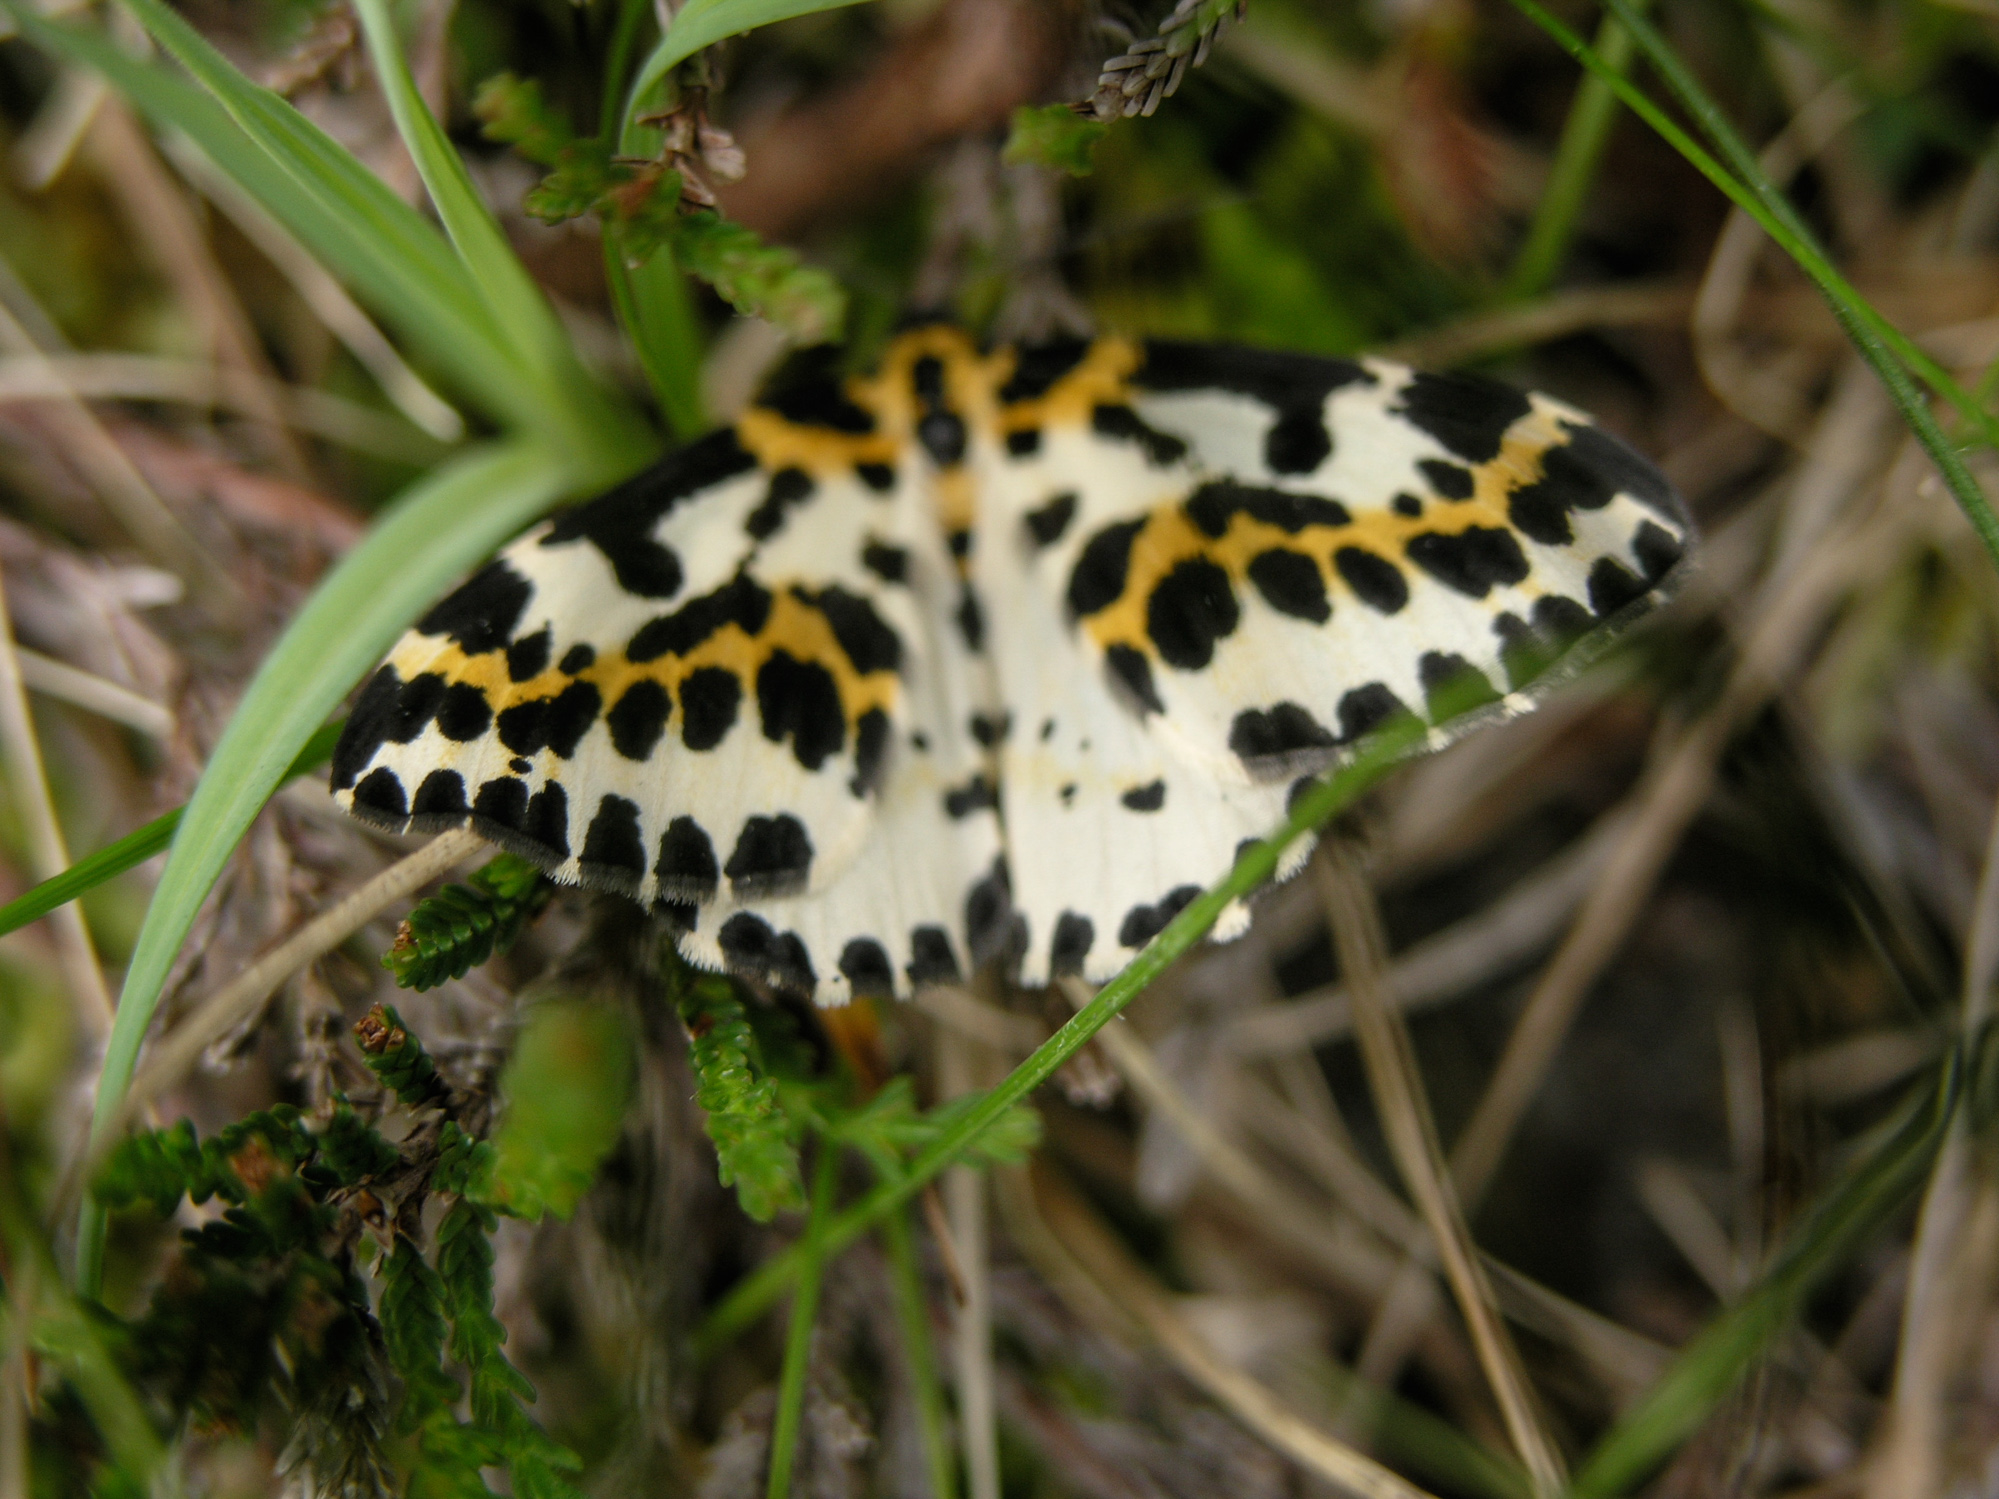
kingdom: Animalia
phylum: Arthropoda
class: Insecta
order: Lepidoptera
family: Geometridae
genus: Abraxas
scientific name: Abraxas grossulariata
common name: Magpie
